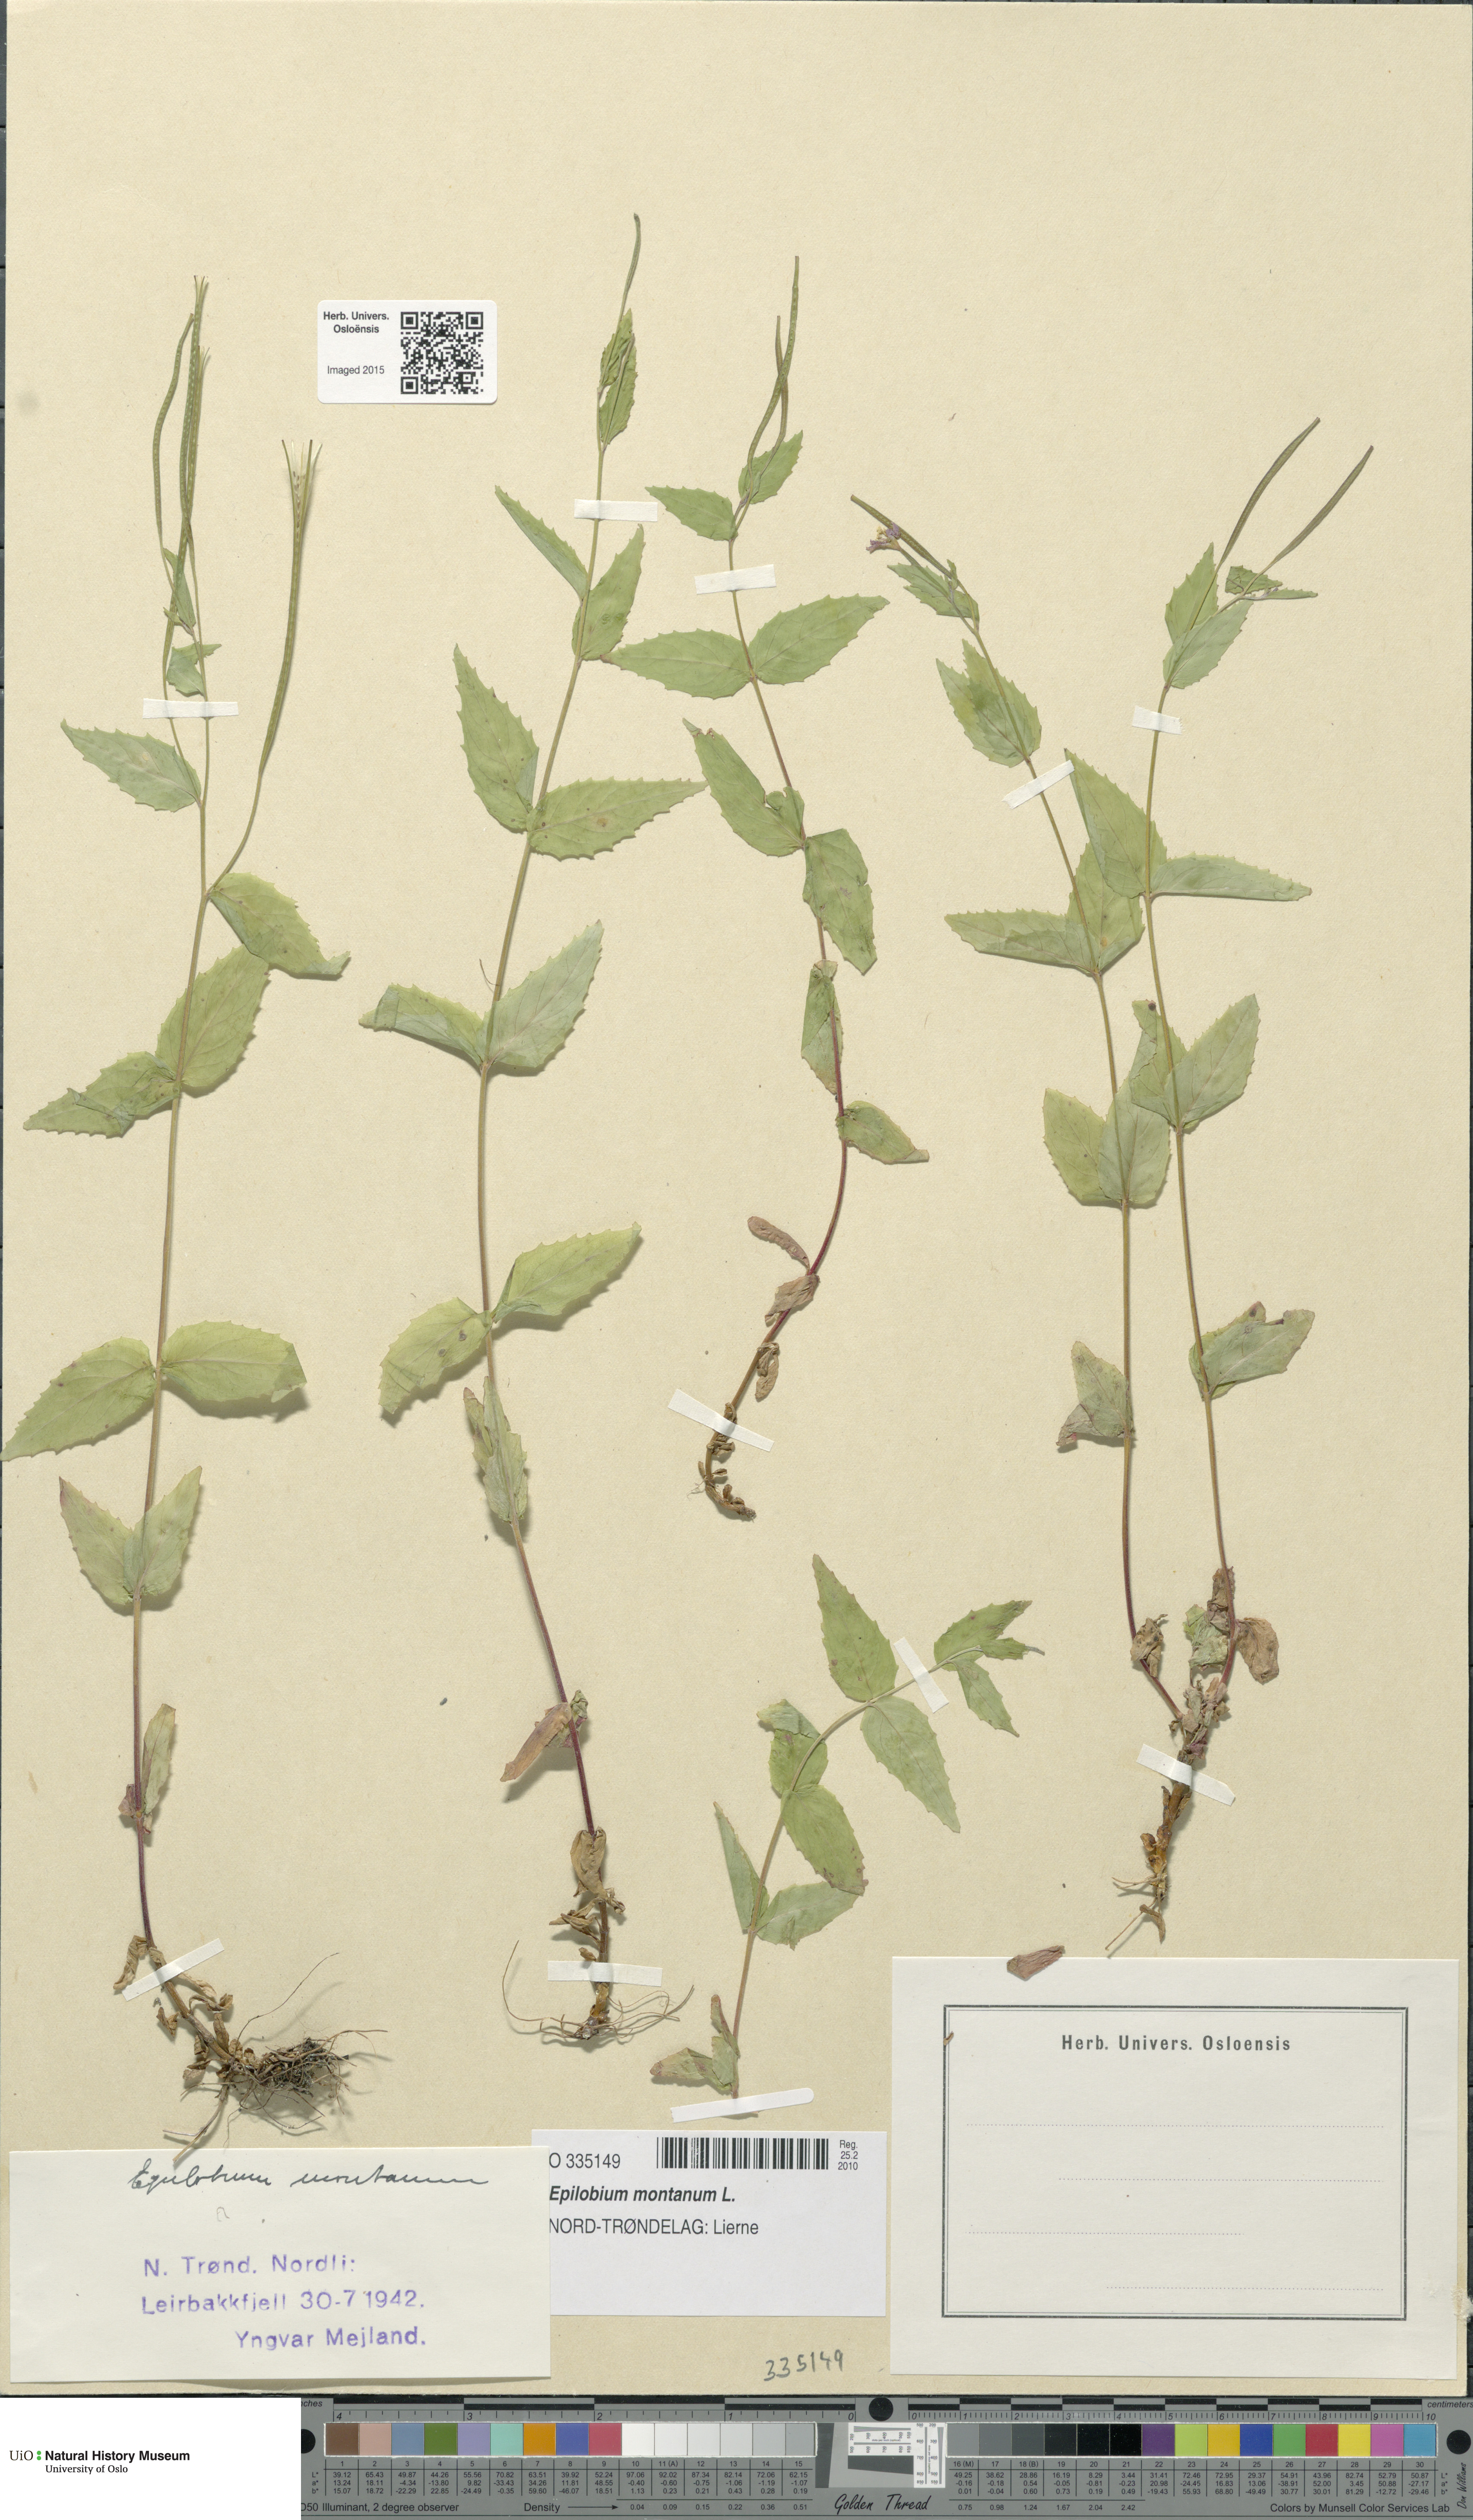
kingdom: Plantae
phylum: Tracheophyta
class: Magnoliopsida
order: Myrtales
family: Onagraceae
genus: Epilobium
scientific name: Epilobium montanum
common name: Broad-leaved willowherb
